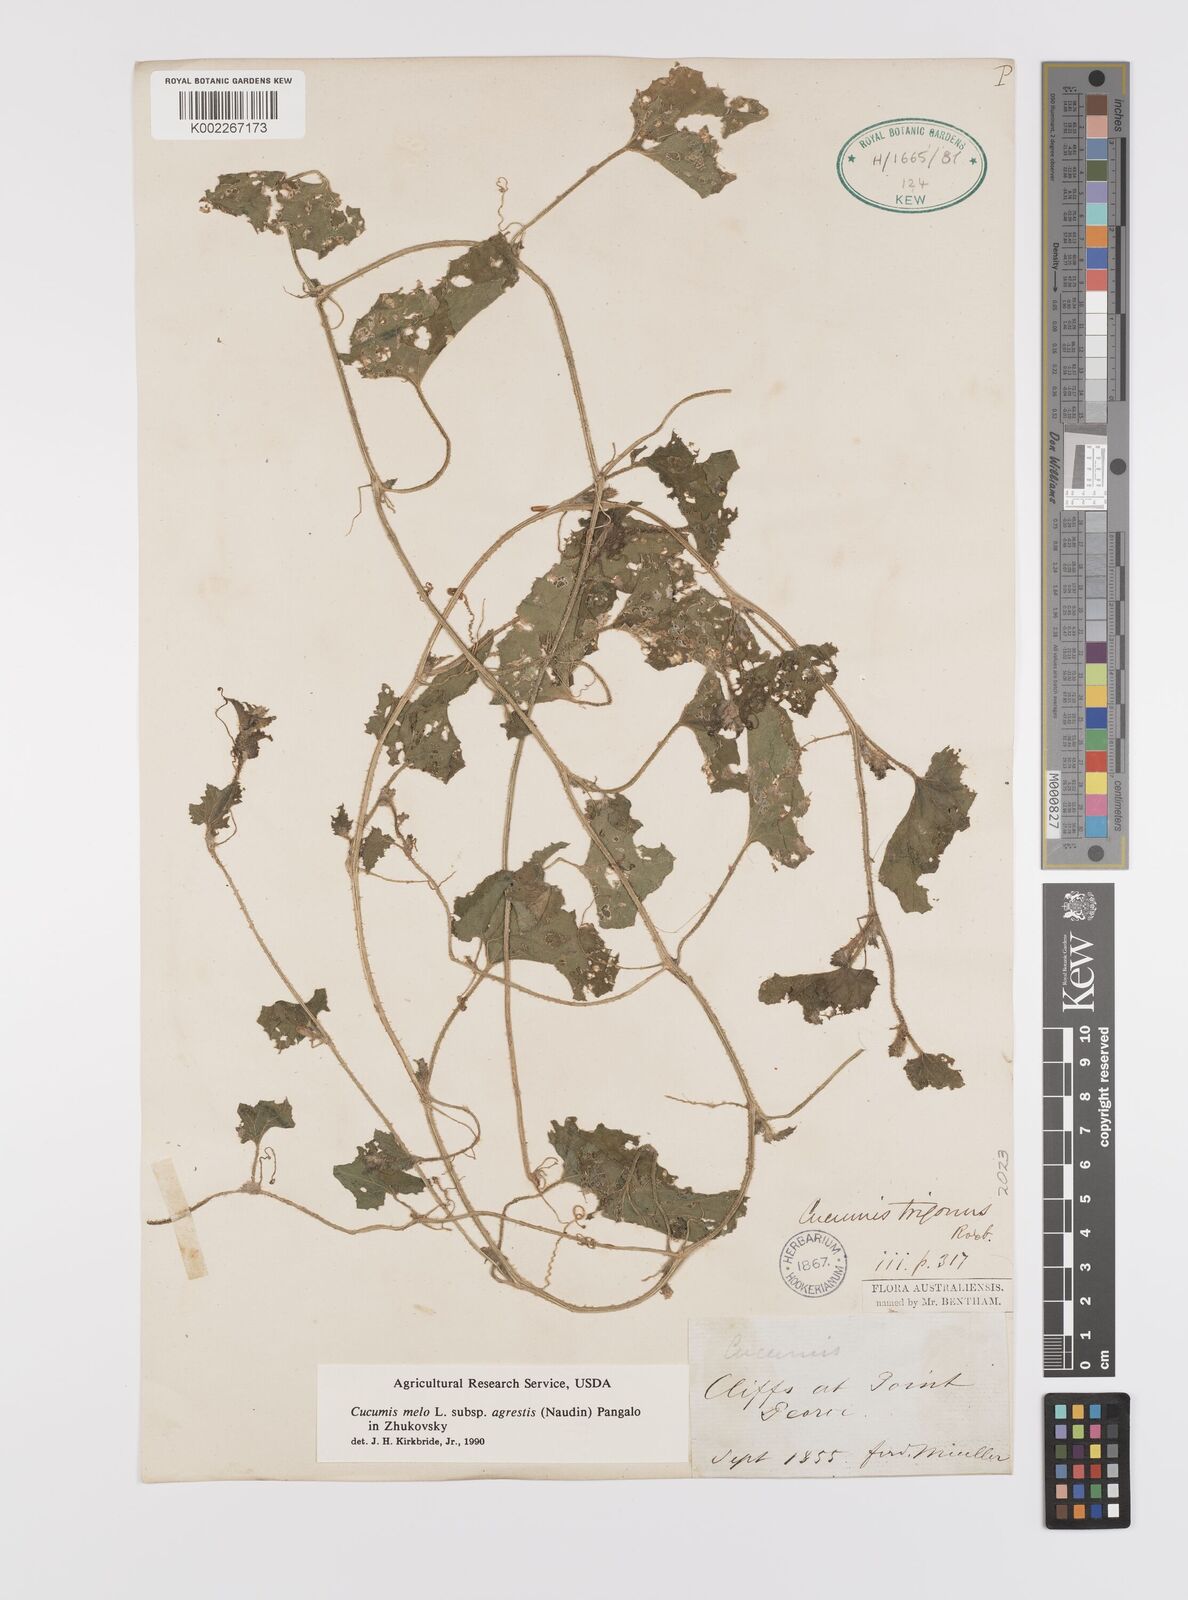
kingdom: Plantae
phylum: Tracheophyta
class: Magnoliopsida
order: Cucurbitales
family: Cucurbitaceae
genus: Cucumis
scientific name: Cucumis melo
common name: Melon
